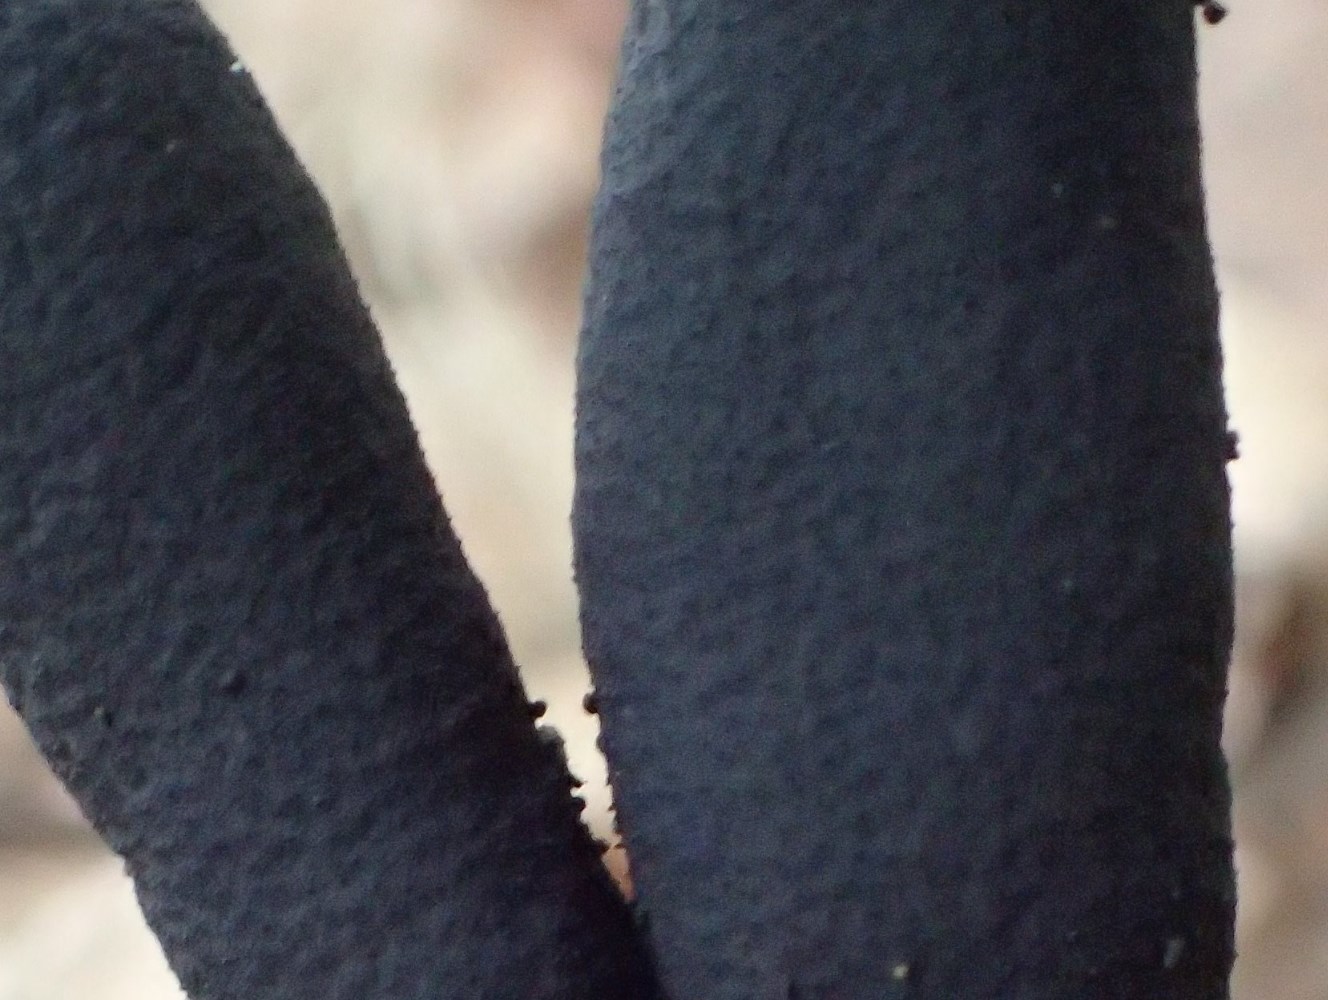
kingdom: Fungi
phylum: Ascomycota
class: Sordariomycetes
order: Xylariales
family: Xylariaceae
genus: Xylaria
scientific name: Xylaria longipes
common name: slank stødsvamp
